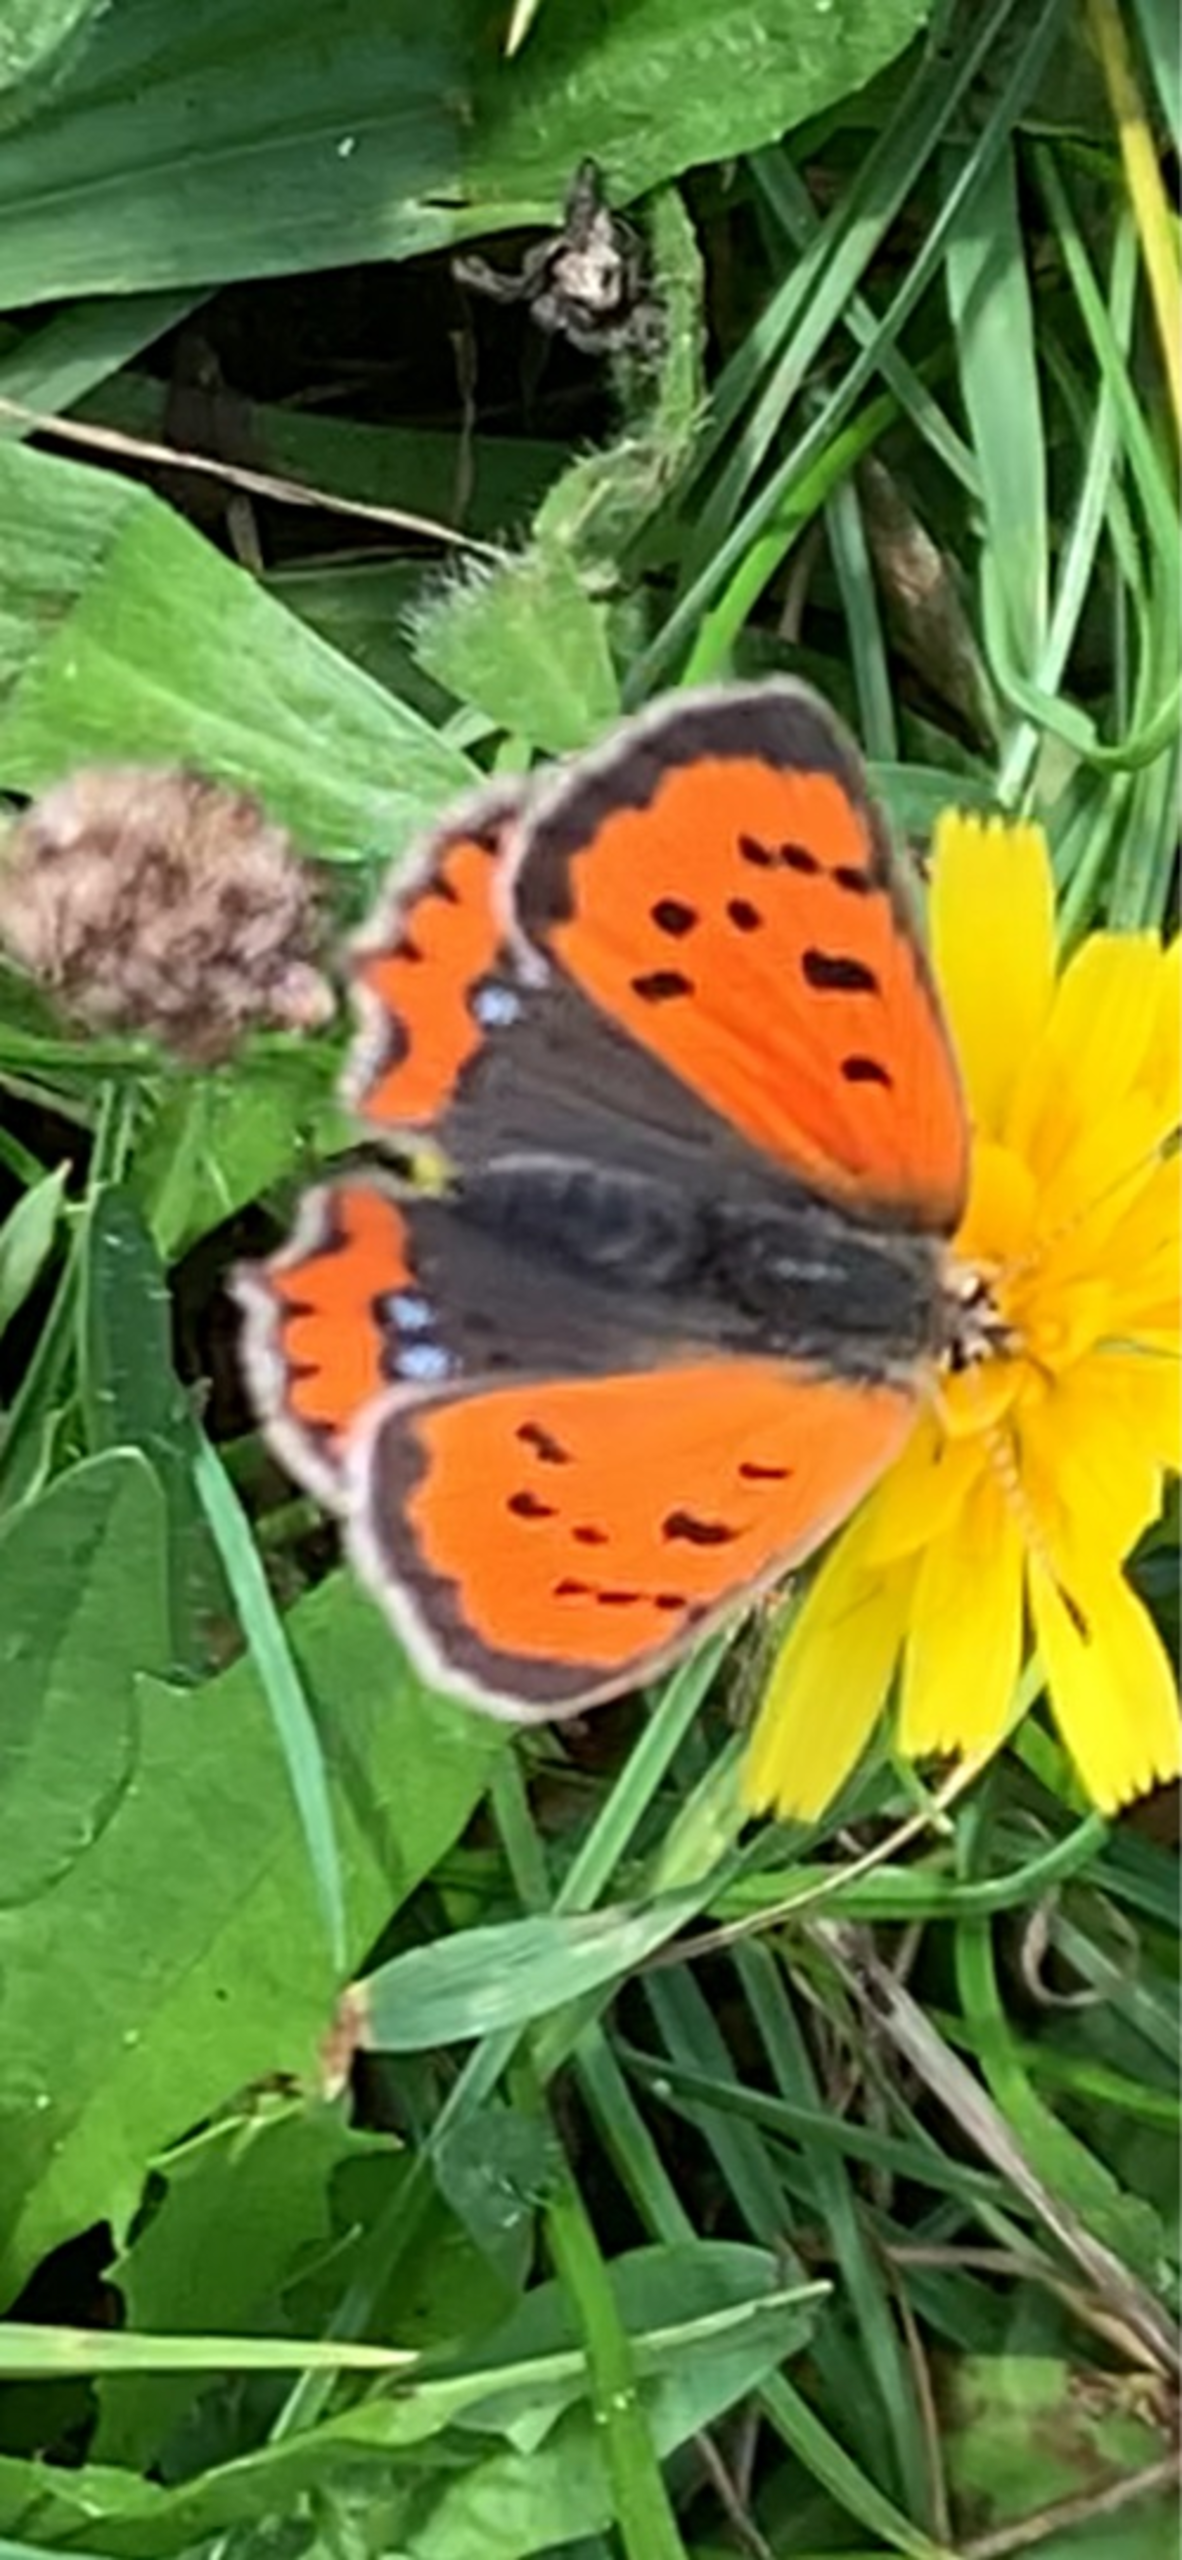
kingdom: Animalia
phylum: Arthropoda
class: Insecta
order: Lepidoptera
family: Lycaenidae
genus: Lycaena
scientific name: Lycaena phlaeas
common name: Lille ildfugl
